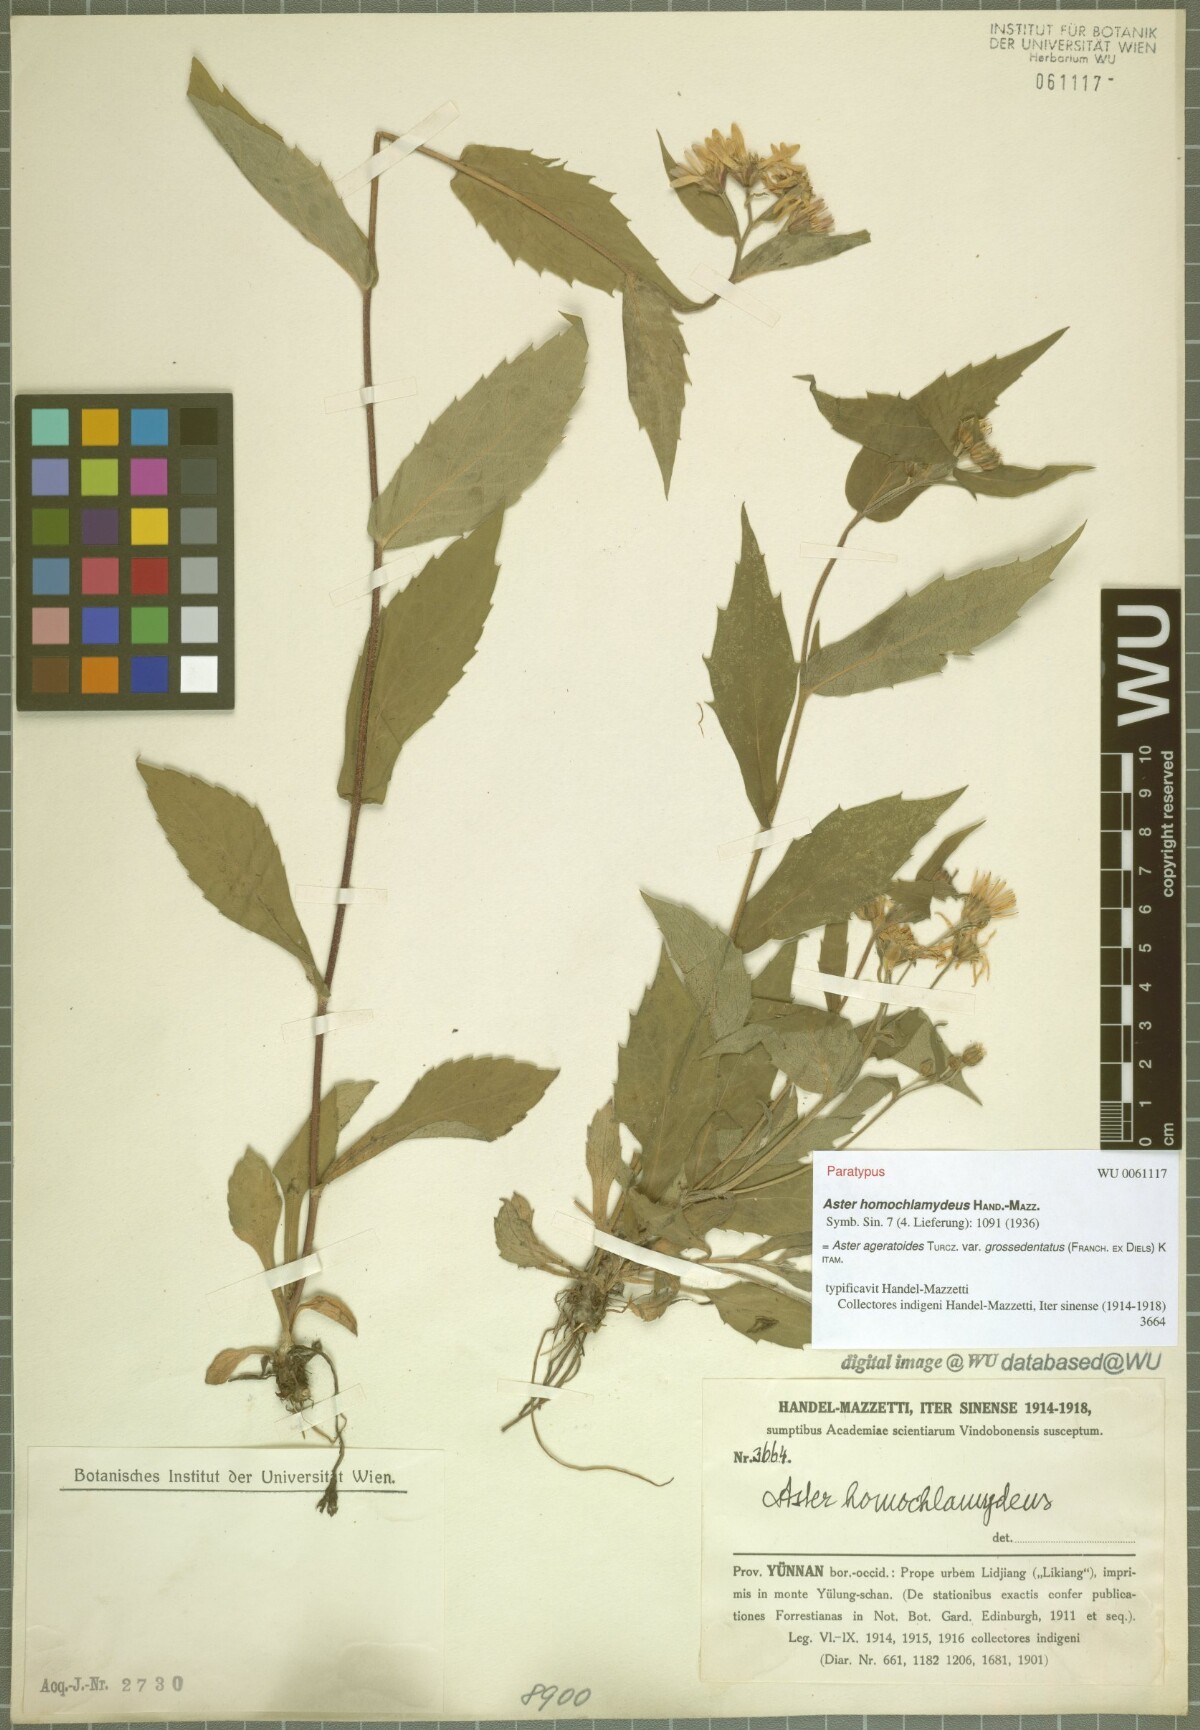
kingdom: Plantae
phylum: Tracheophyta
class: Magnoliopsida
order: Asterales
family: Asteraceae
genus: Aster
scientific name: Aster homochlamydeus
